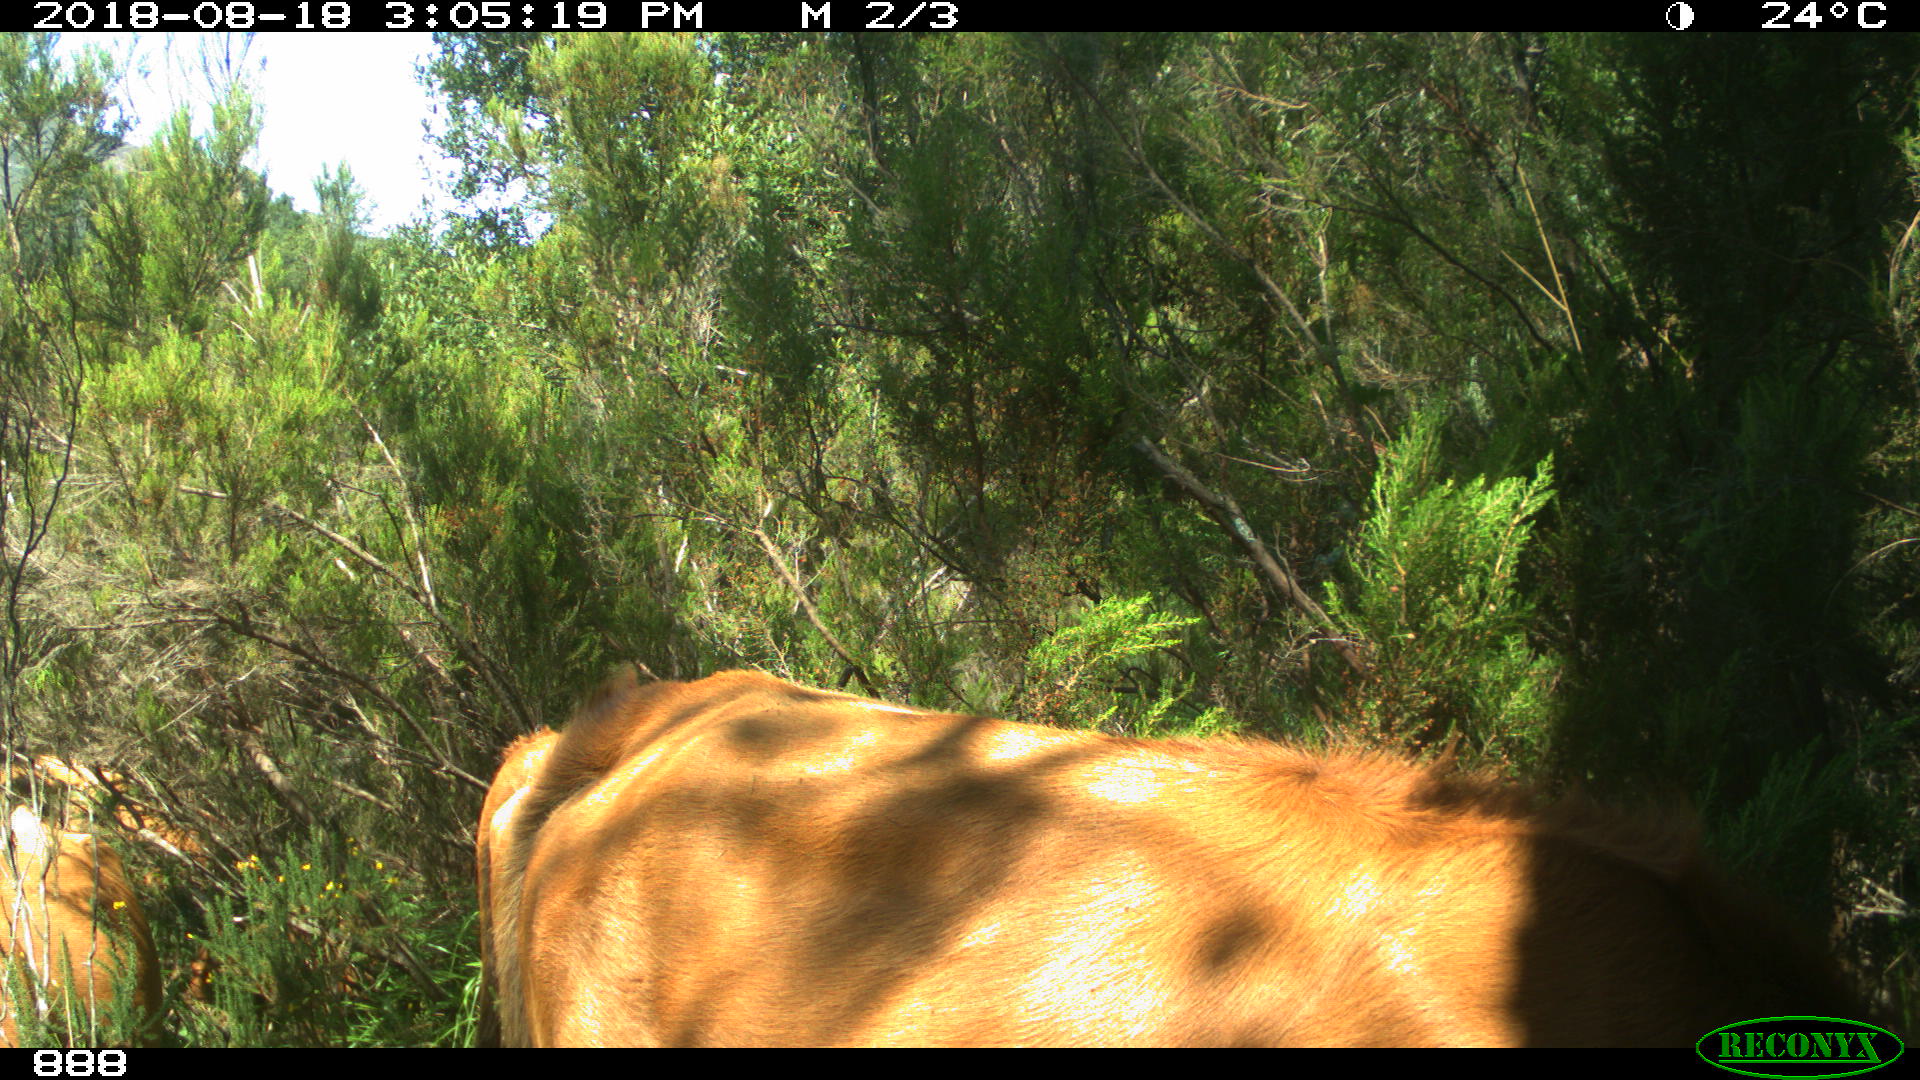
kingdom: Animalia
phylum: Chordata
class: Mammalia
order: Artiodactyla
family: Bovidae
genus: Bos
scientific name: Bos taurus
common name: Domesticated cattle
